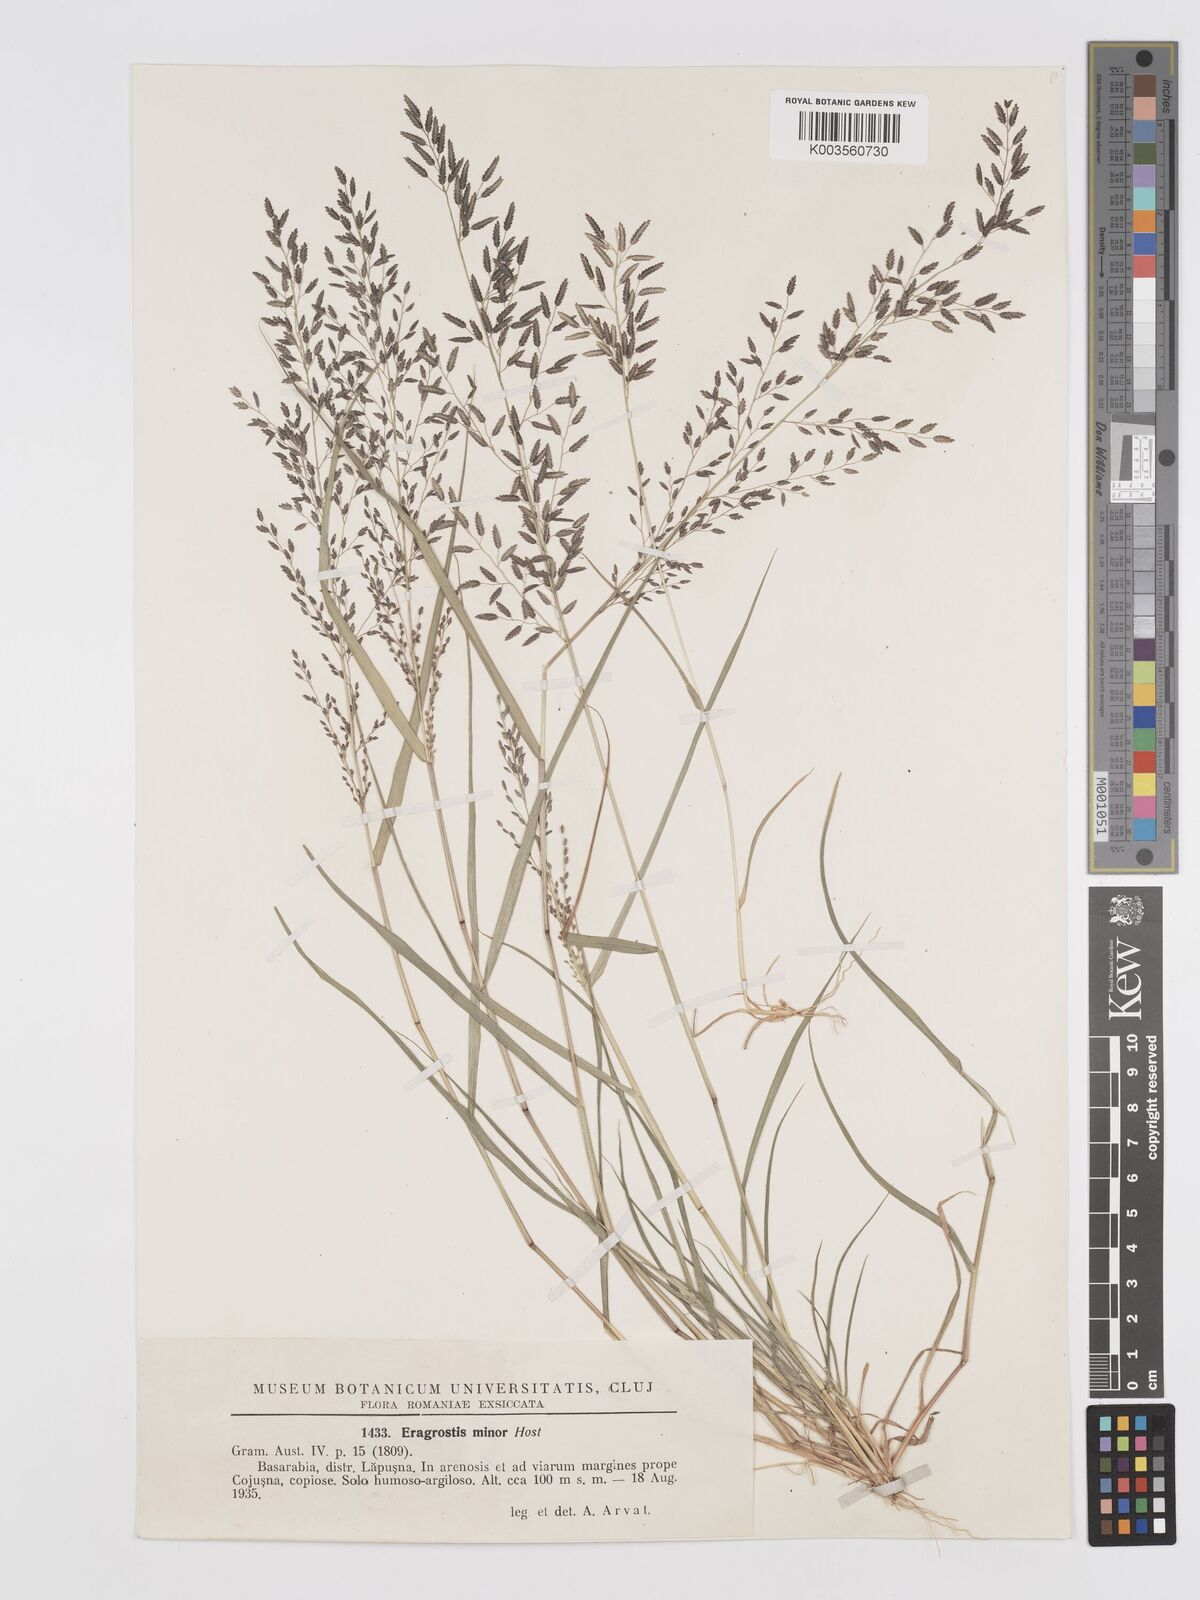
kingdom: Plantae
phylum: Tracheophyta
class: Liliopsida
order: Poales
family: Poaceae
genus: Eragrostis
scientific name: Eragrostis minor
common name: Small love-grass
